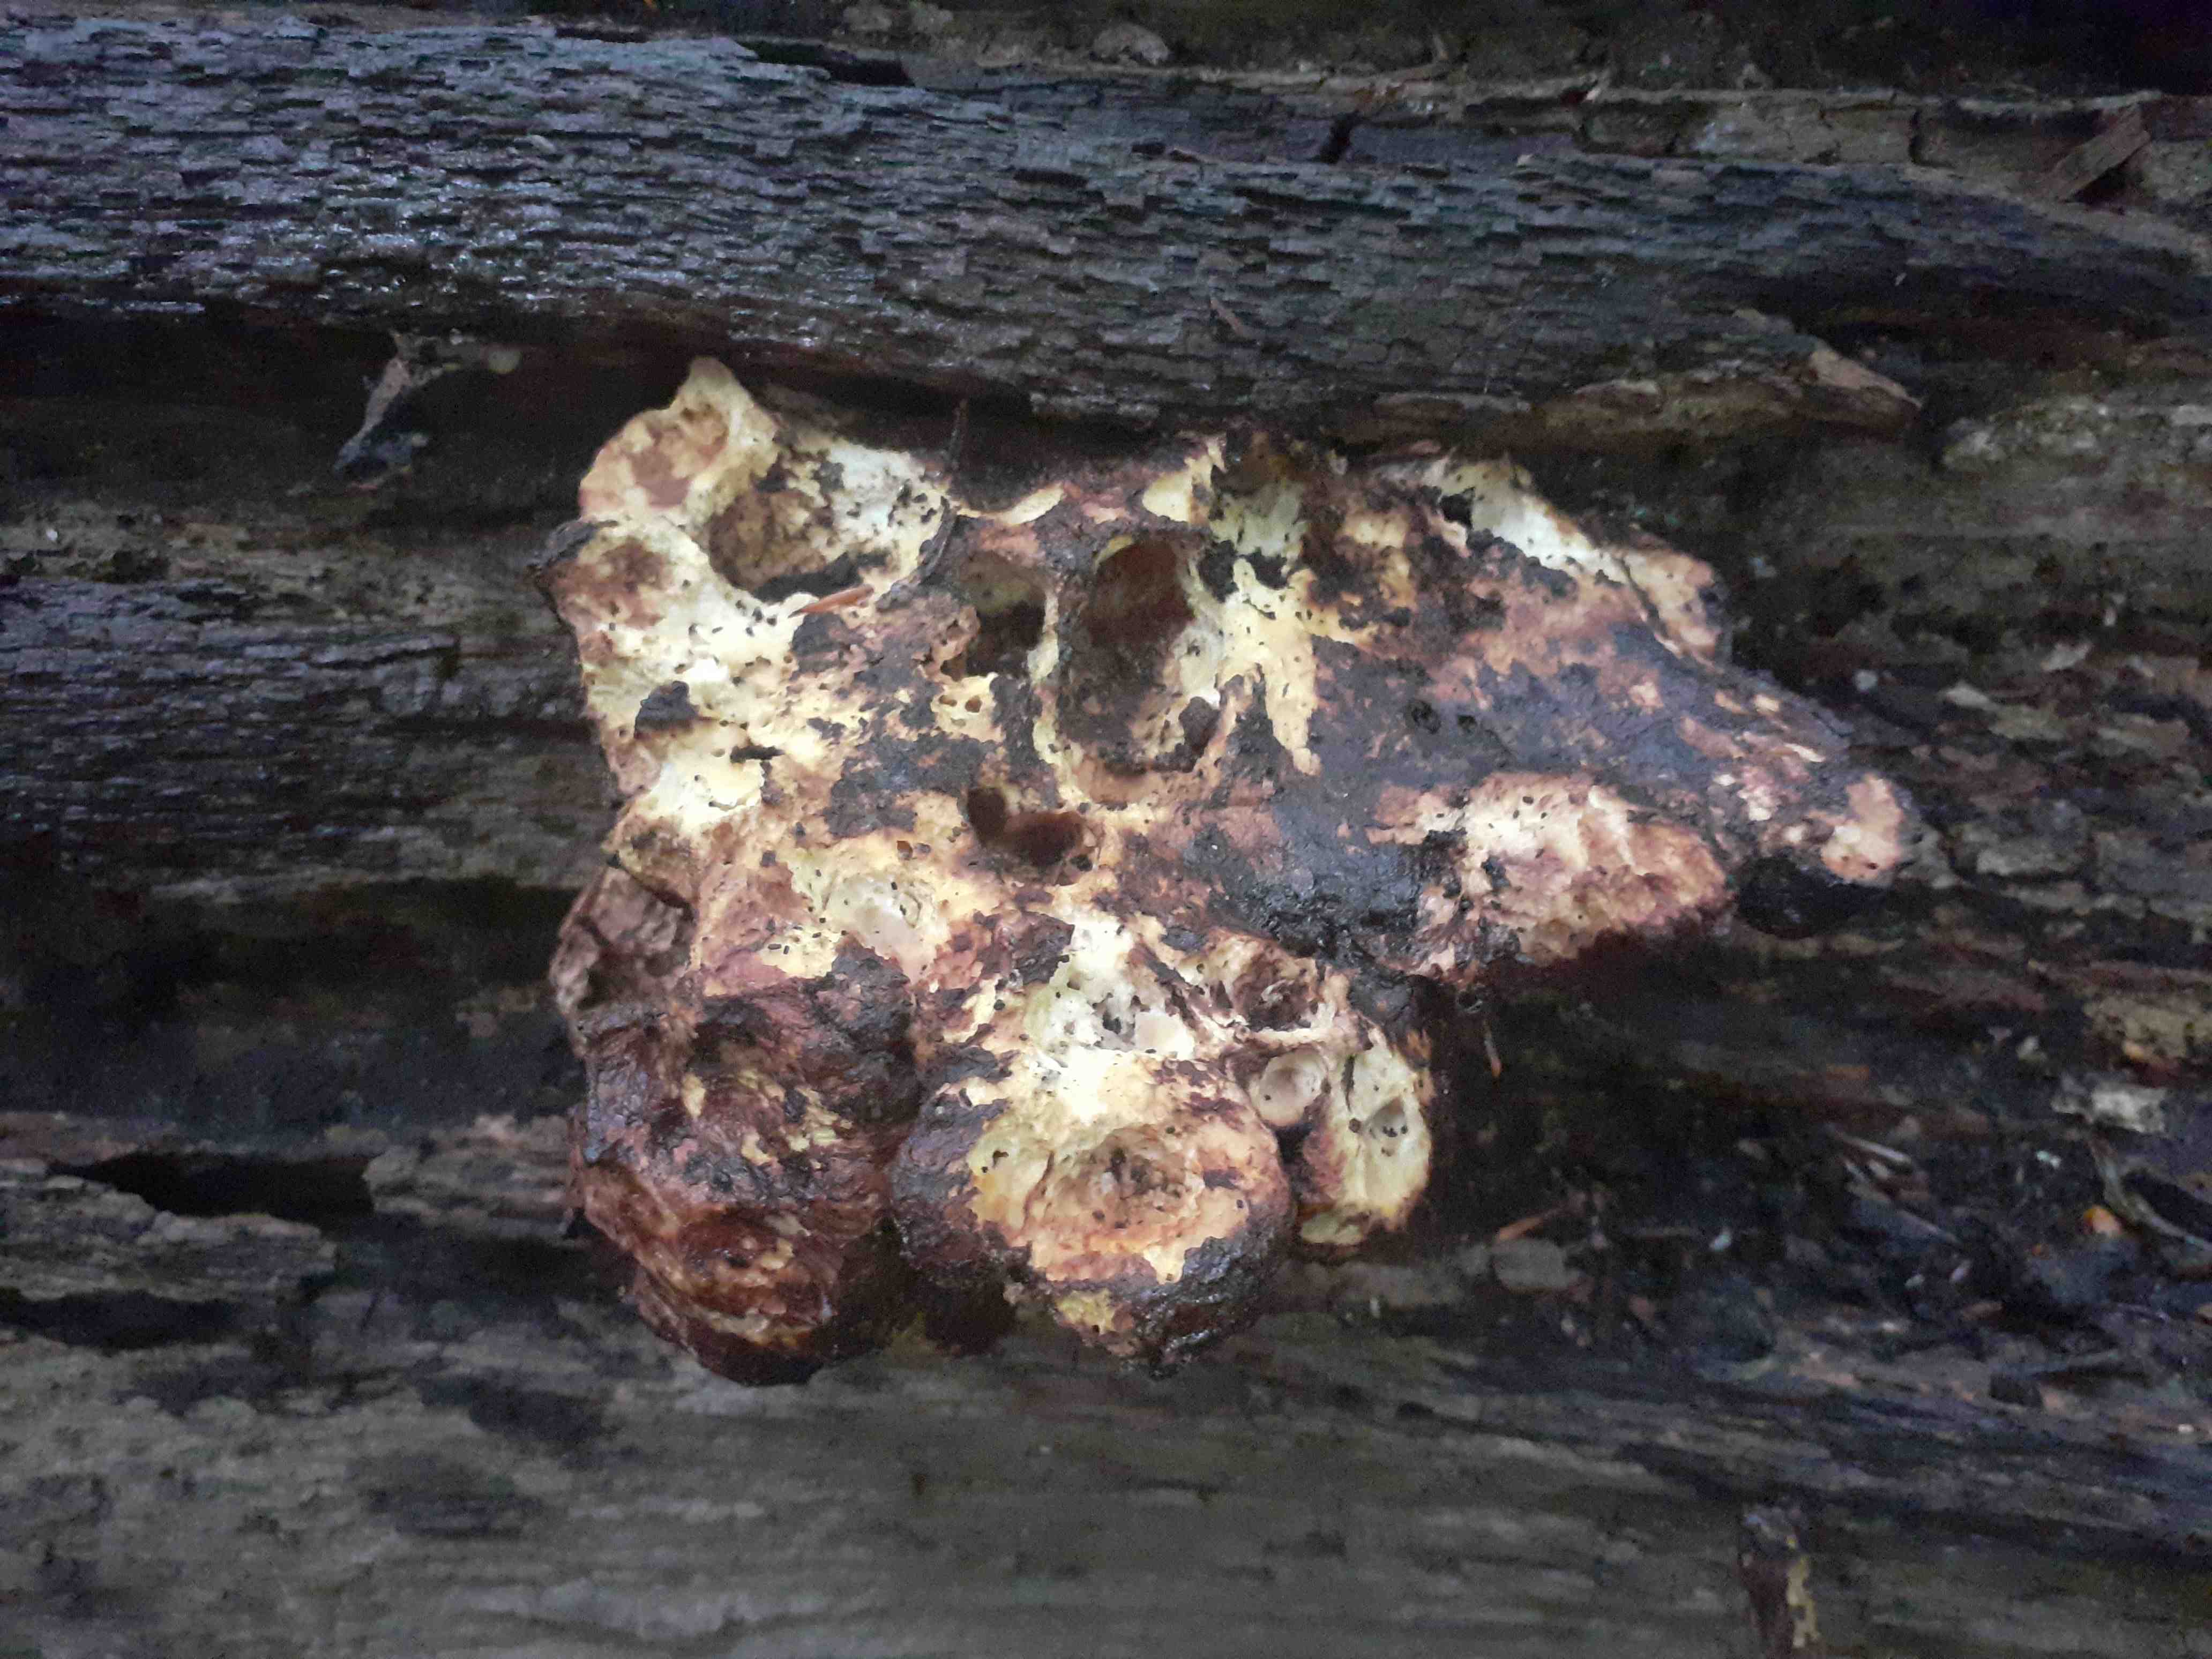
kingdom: Fungi
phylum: Basidiomycota
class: Agaricomycetes
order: Polyporales
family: Fomitopsidaceae
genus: Buglossoporus
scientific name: Buglossoporus quercinus
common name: egetunge
